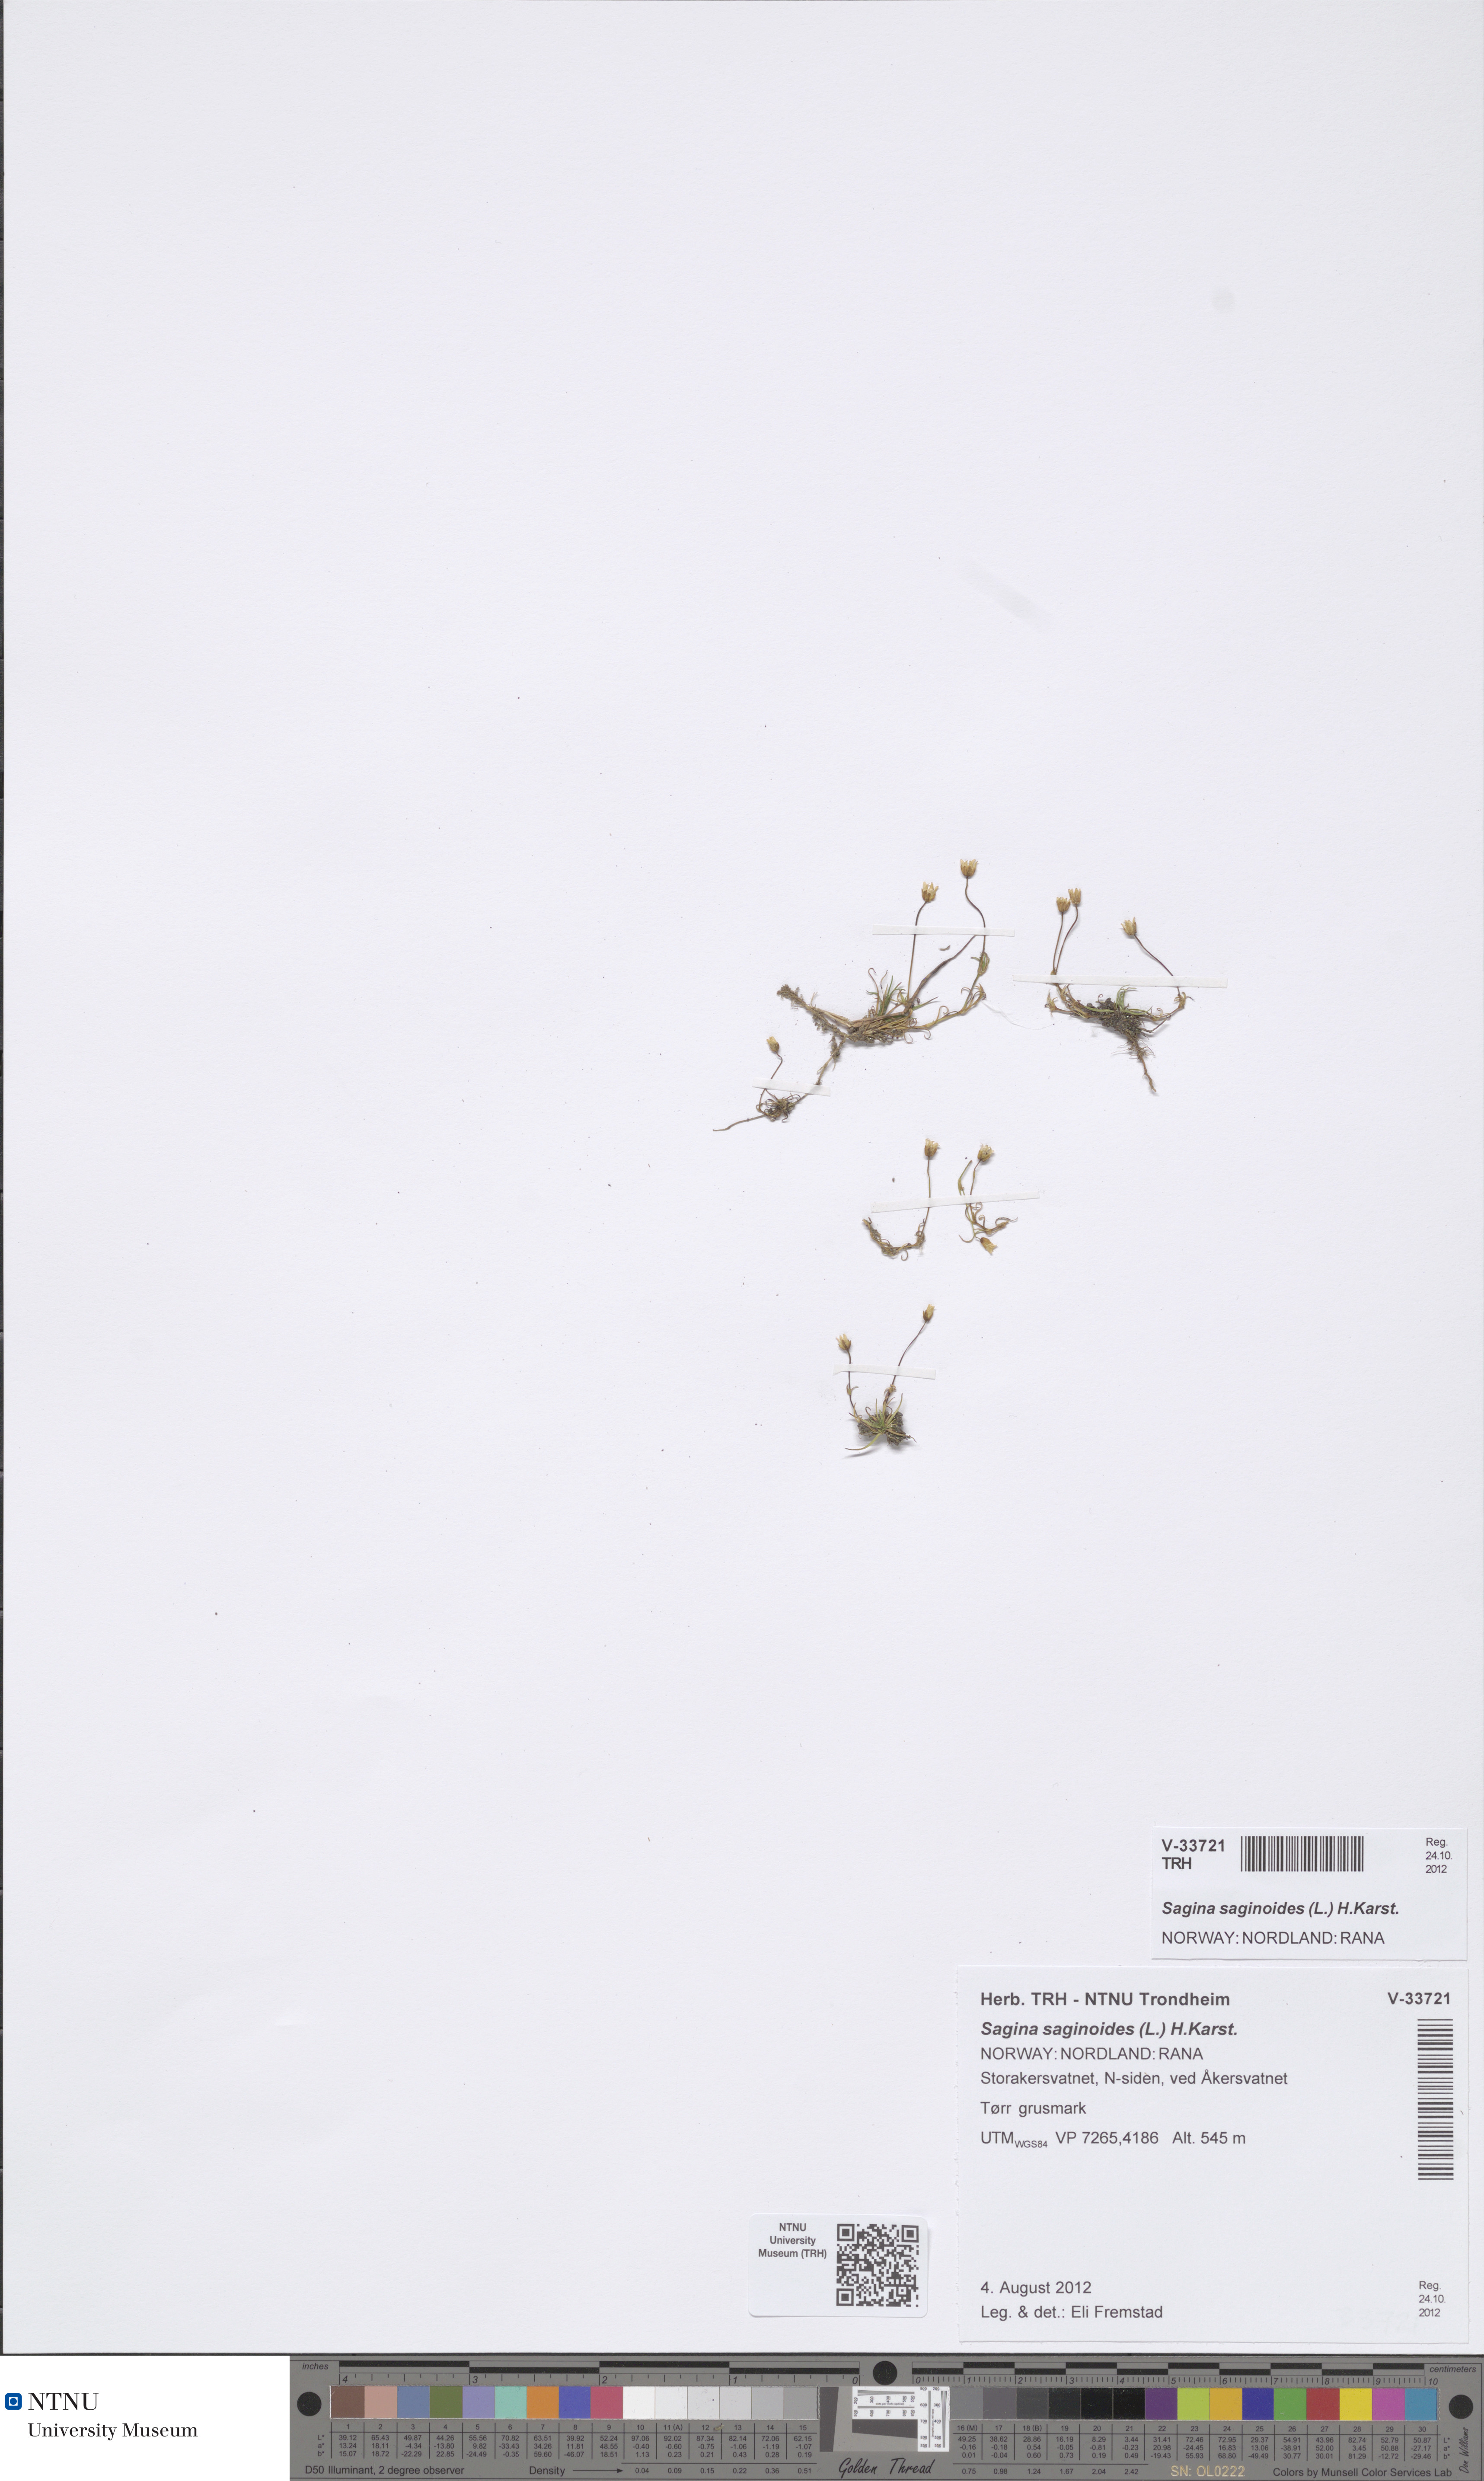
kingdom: Plantae
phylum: Tracheophyta
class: Magnoliopsida
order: Caryophyllales
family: Caryophyllaceae
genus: Sagina
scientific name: Sagina saginoides
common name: Alpine pearlwort
